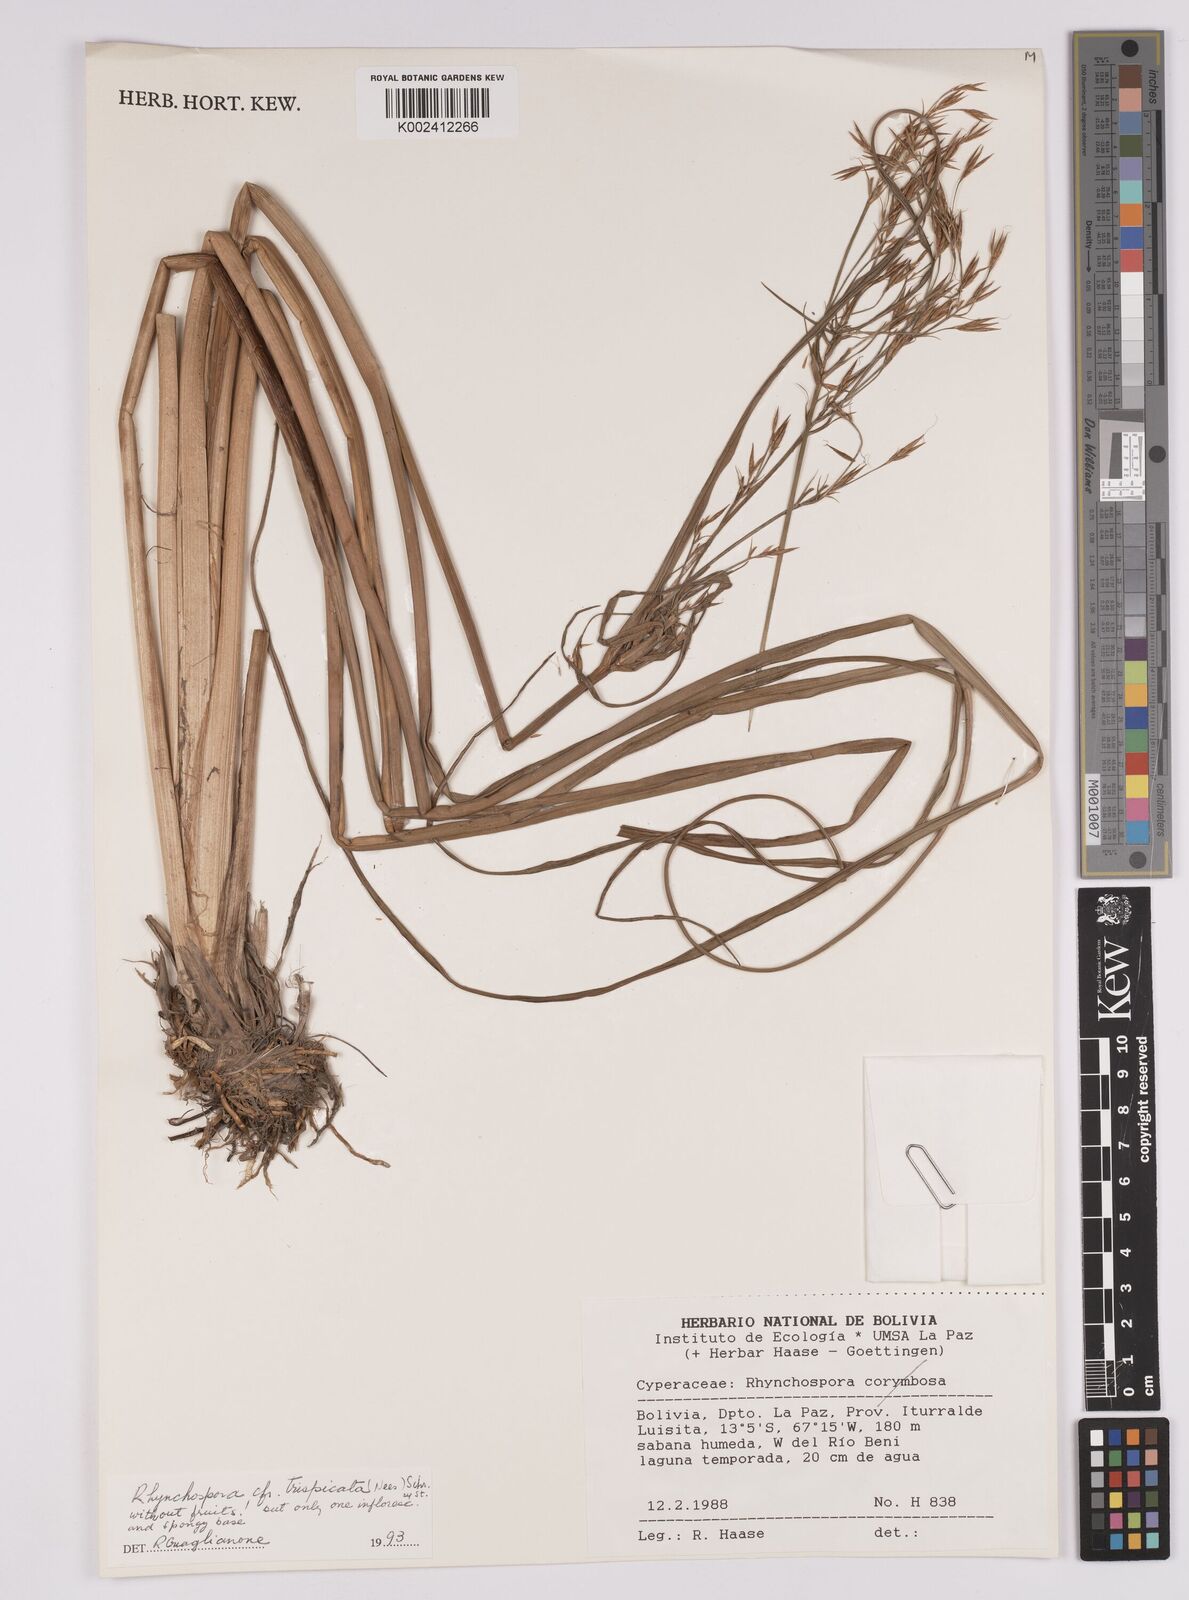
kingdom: Plantae
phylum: Tracheophyta
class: Liliopsida
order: Poales
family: Cyperaceae
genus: Rhynchospora
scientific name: Rhynchospora trispicata
